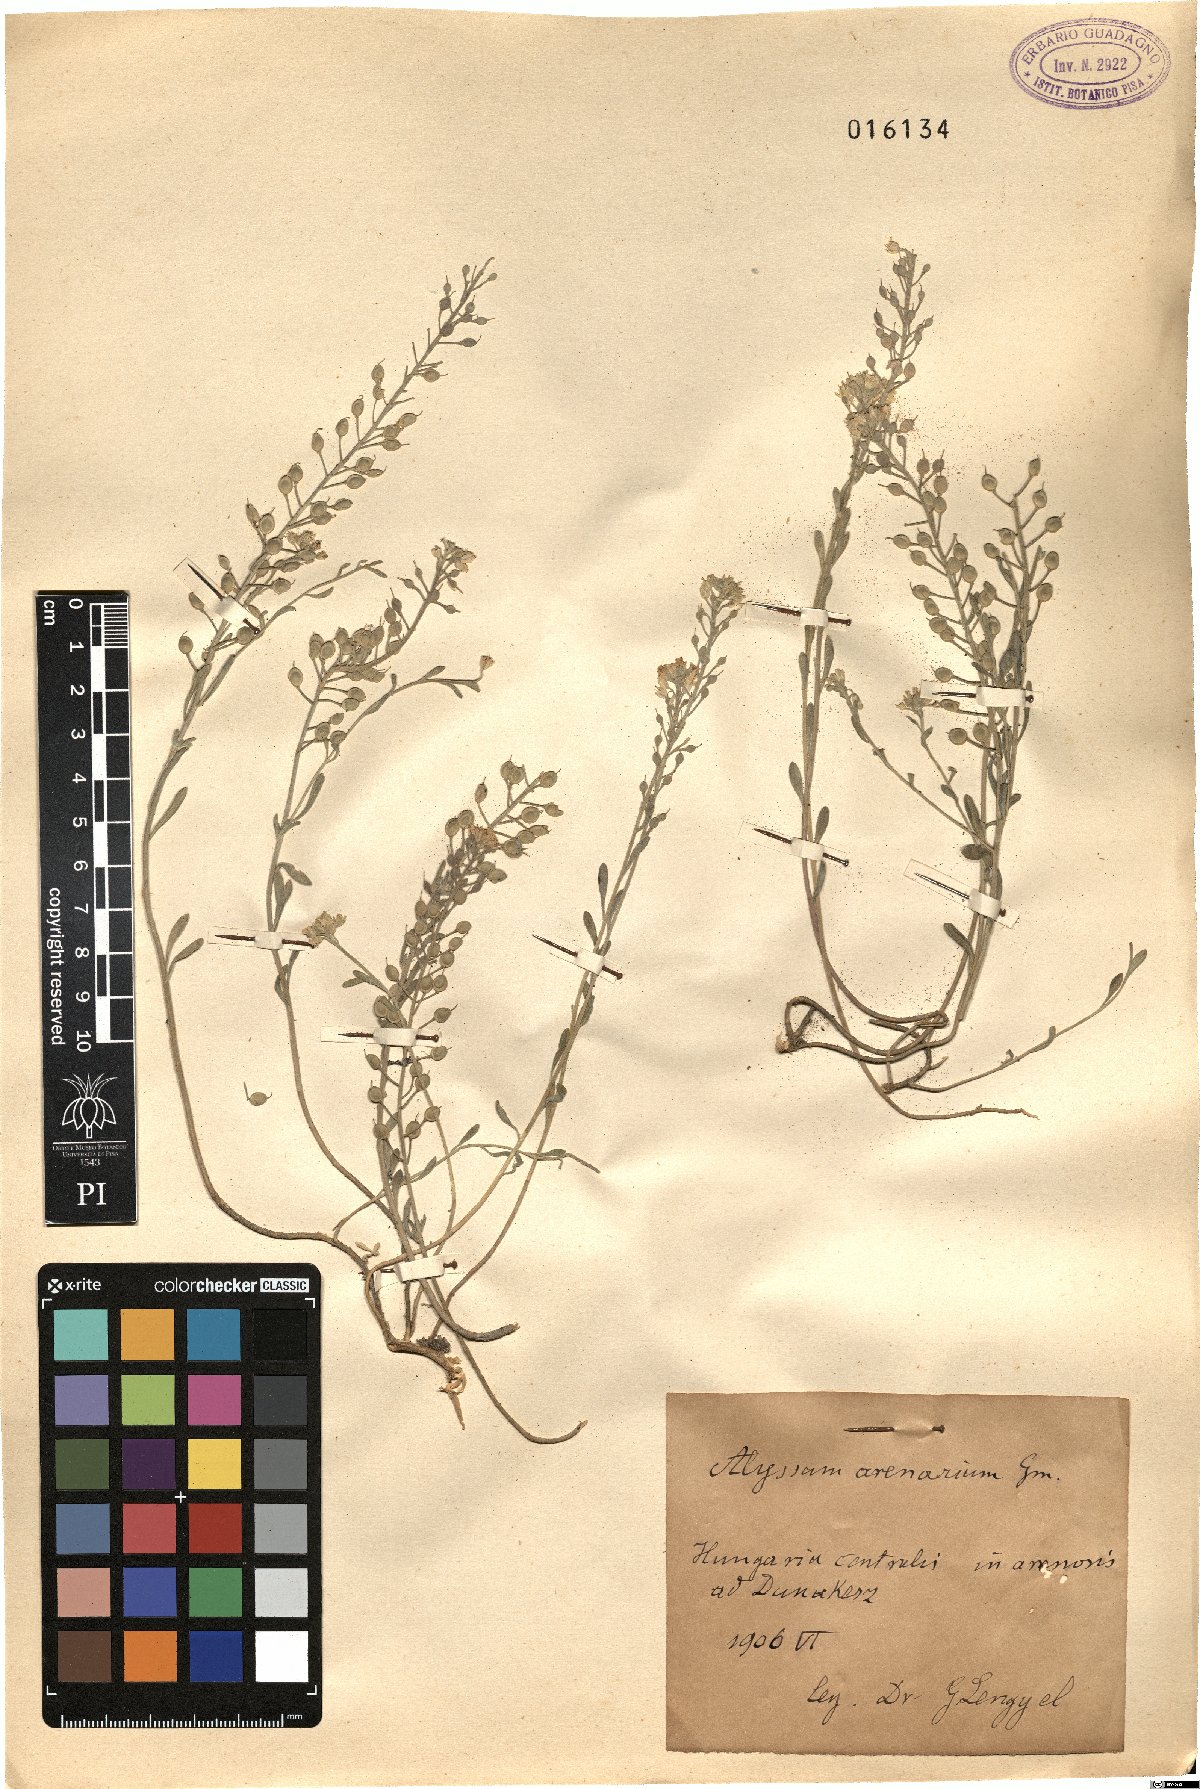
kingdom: Plantae
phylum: Tracheophyta
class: Magnoliopsida
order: Brassicales
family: Brassicaceae
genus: Alyssum
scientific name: Alyssum gmelinii
